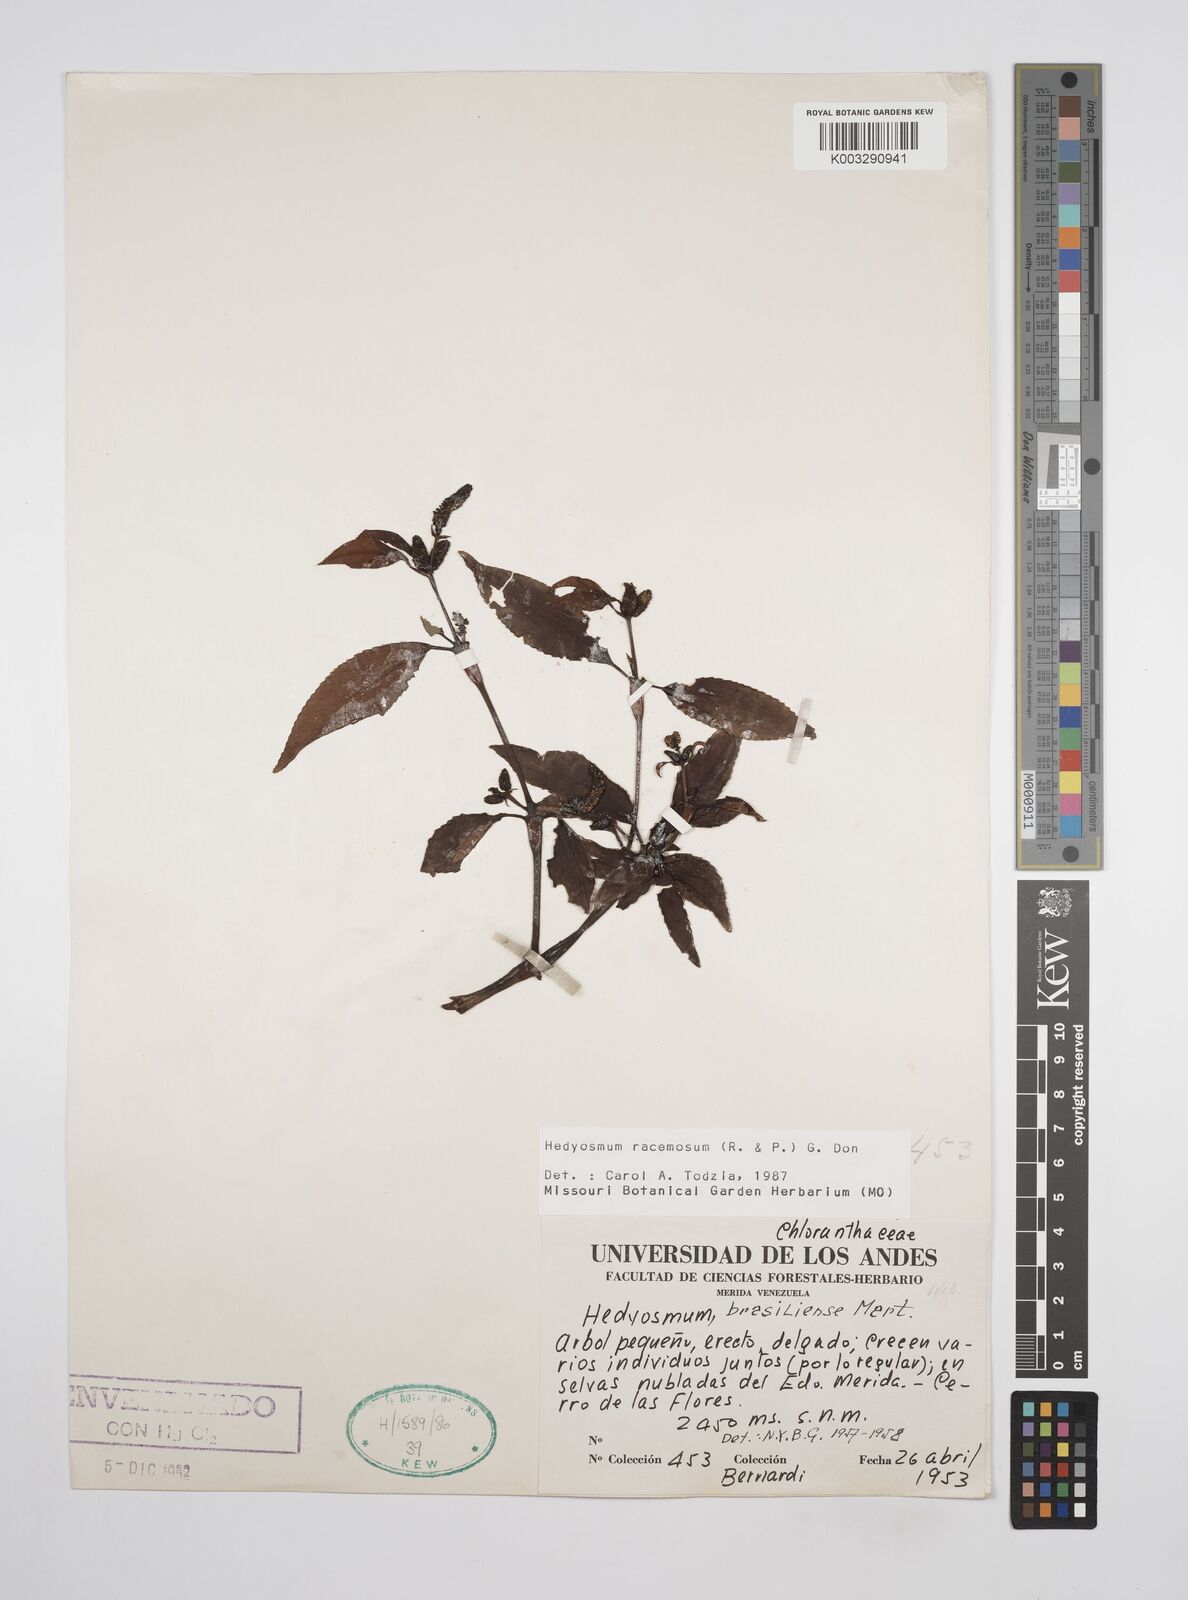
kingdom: Plantae
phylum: Tracheophyta
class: Magnoliopsida
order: Chloranthales
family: Chloranthaceae
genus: Hedyosmum
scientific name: Hedyosmum racemosum
